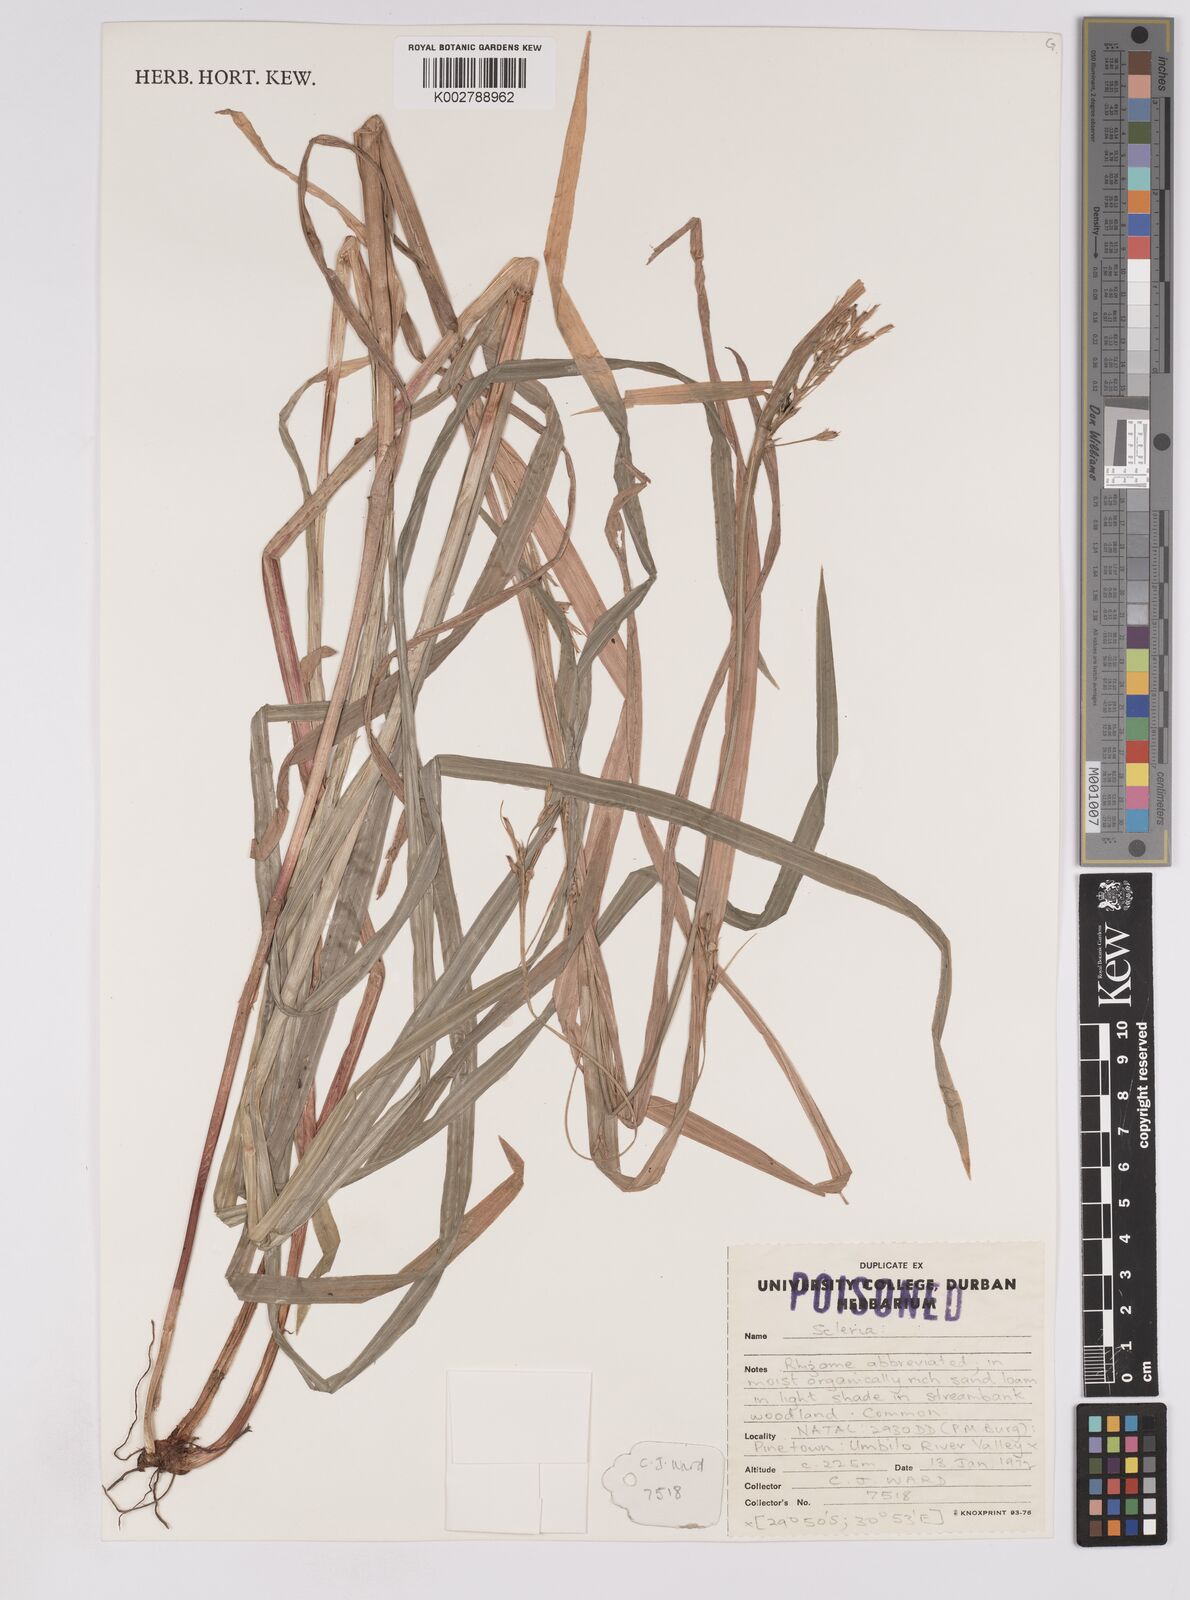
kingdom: Plantae
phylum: Tracheophyta
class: Liliopsida
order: Poales
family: Cyperaceae
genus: Scleria
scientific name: Scleria
